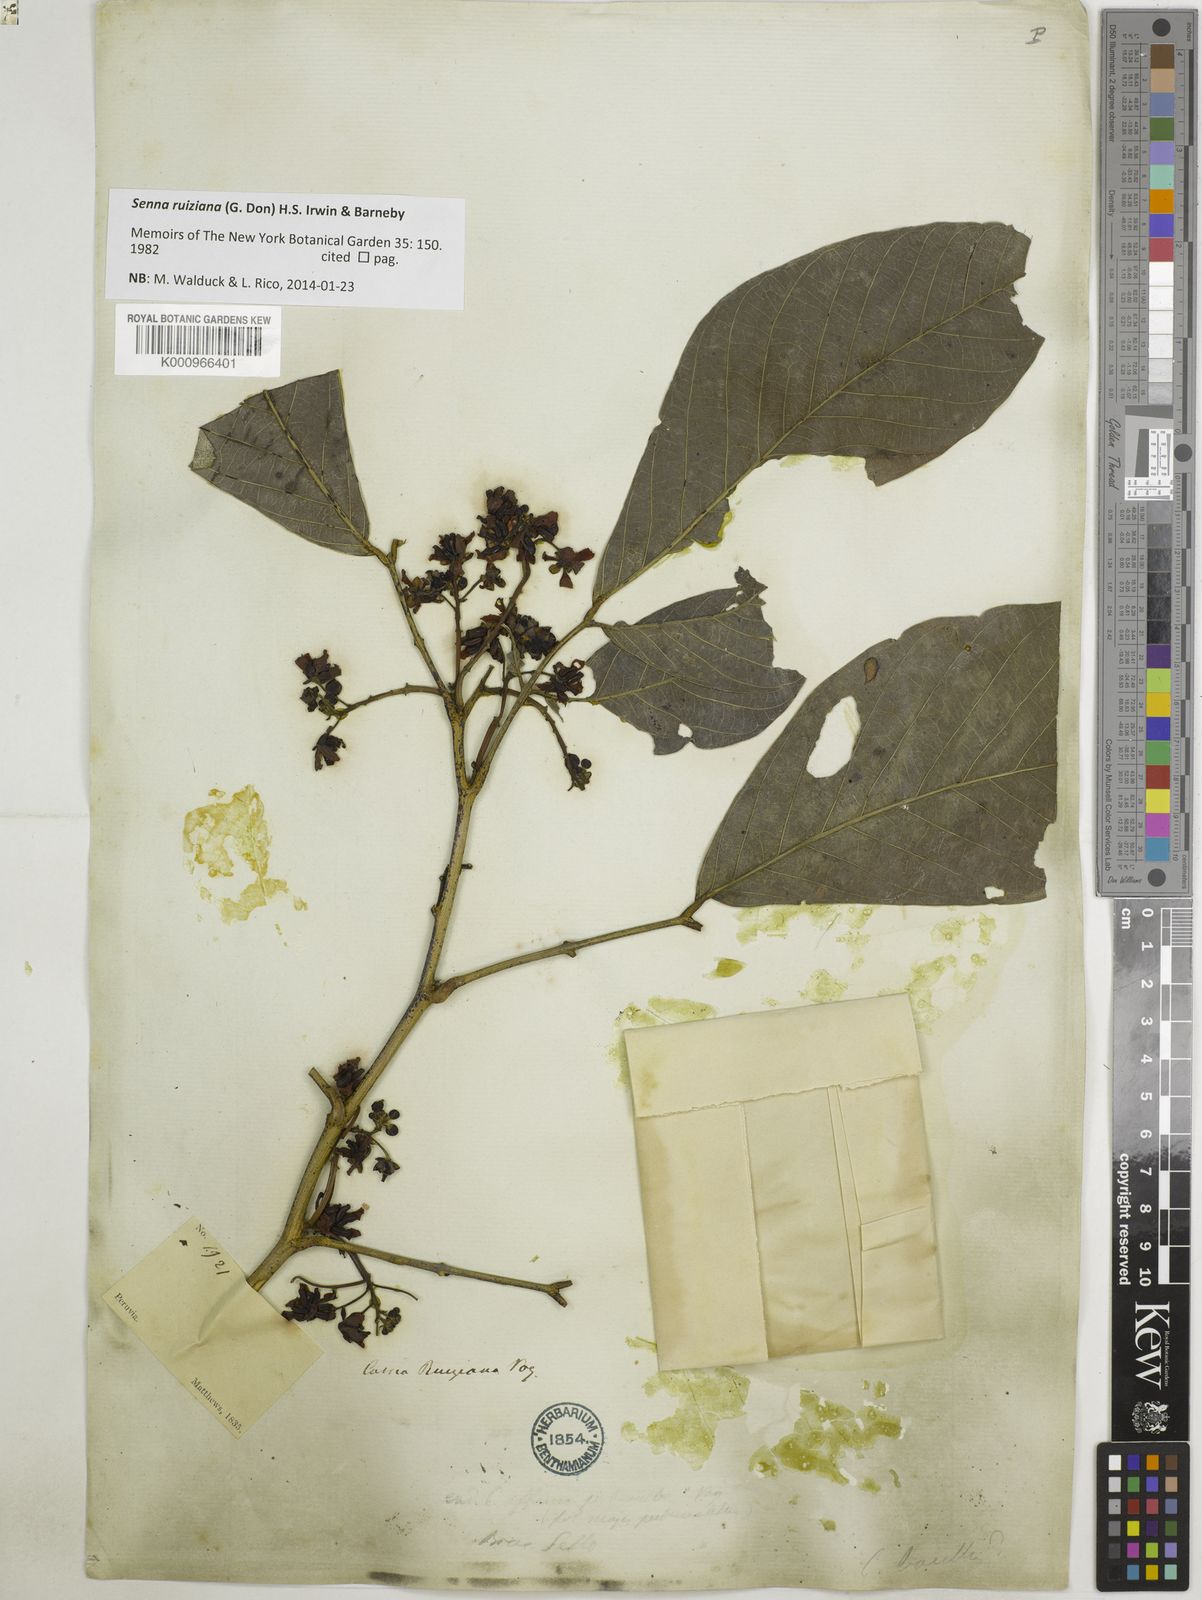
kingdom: Plantae
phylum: Tracheophyta
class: Magnoliopsida
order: Fabales
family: Fabaceae
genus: Senna
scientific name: Senna ruiziana
